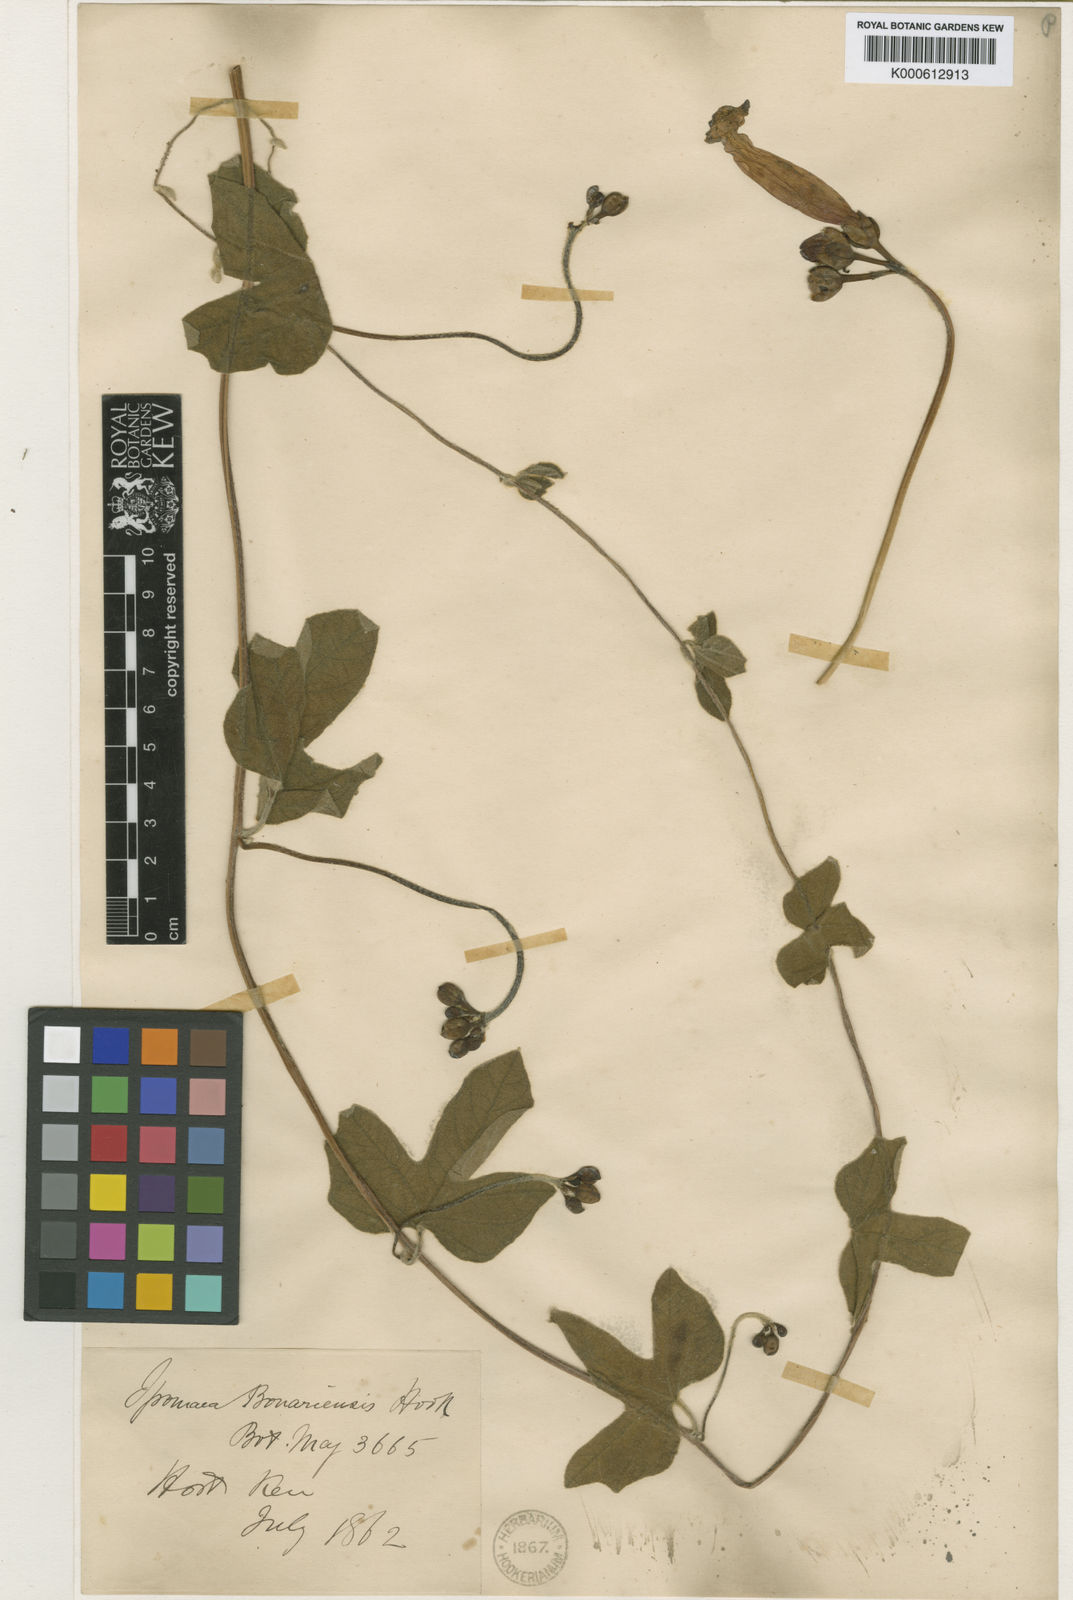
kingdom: Plantae
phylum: Tracheophyta
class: Magnoliopsida
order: Solanales
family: Convolvulaceae
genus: Ipomoea
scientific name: Ipomoea bonariensis
